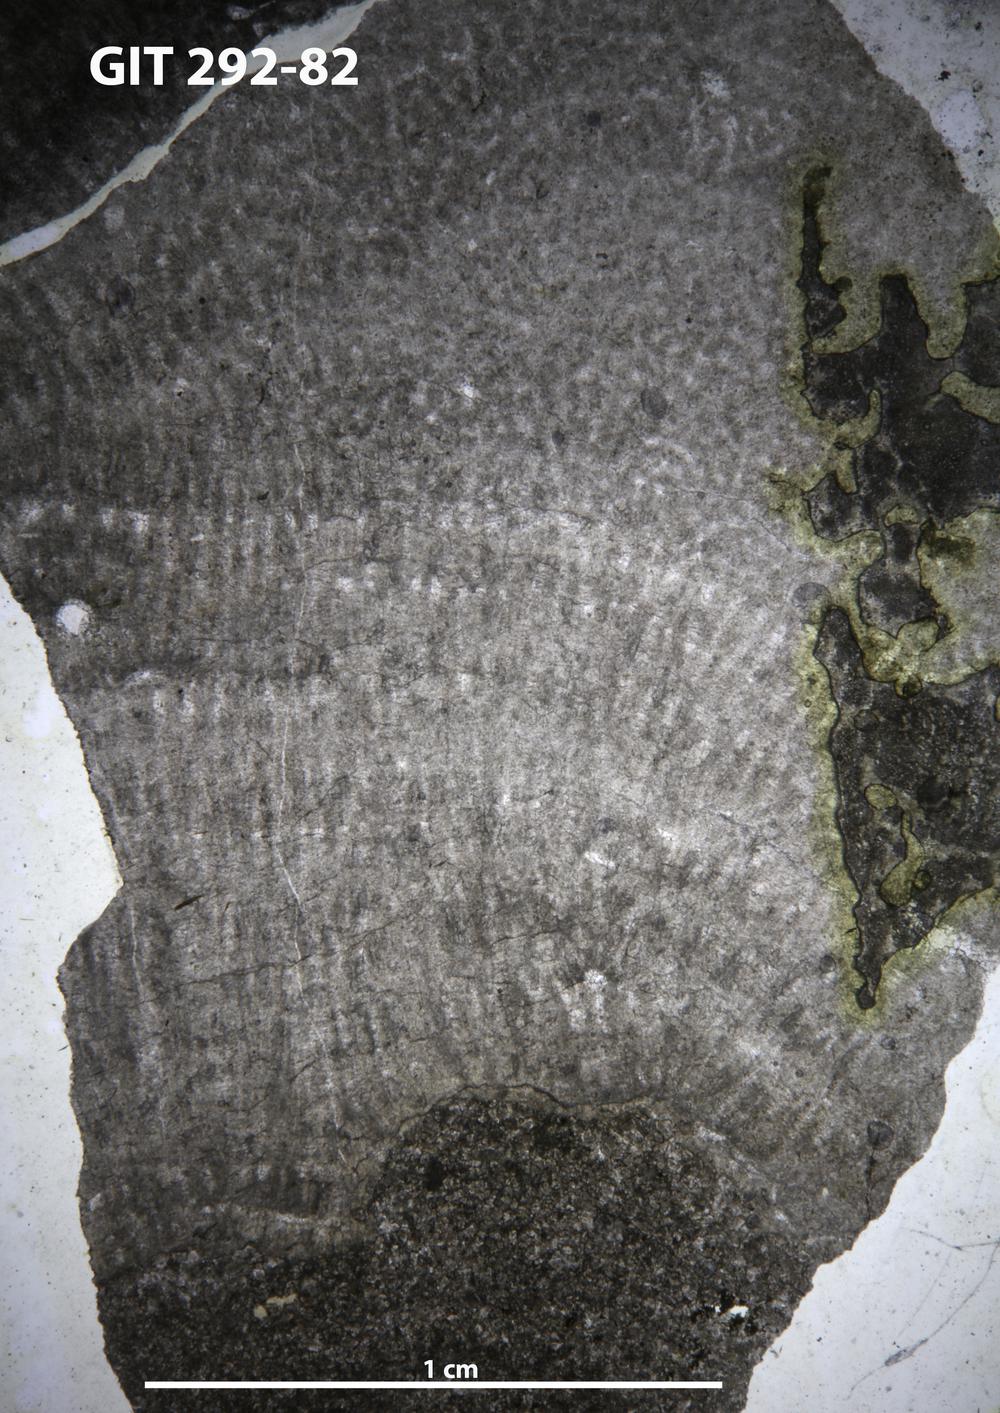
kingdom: Animalia
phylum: Porifera
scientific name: Porifera
